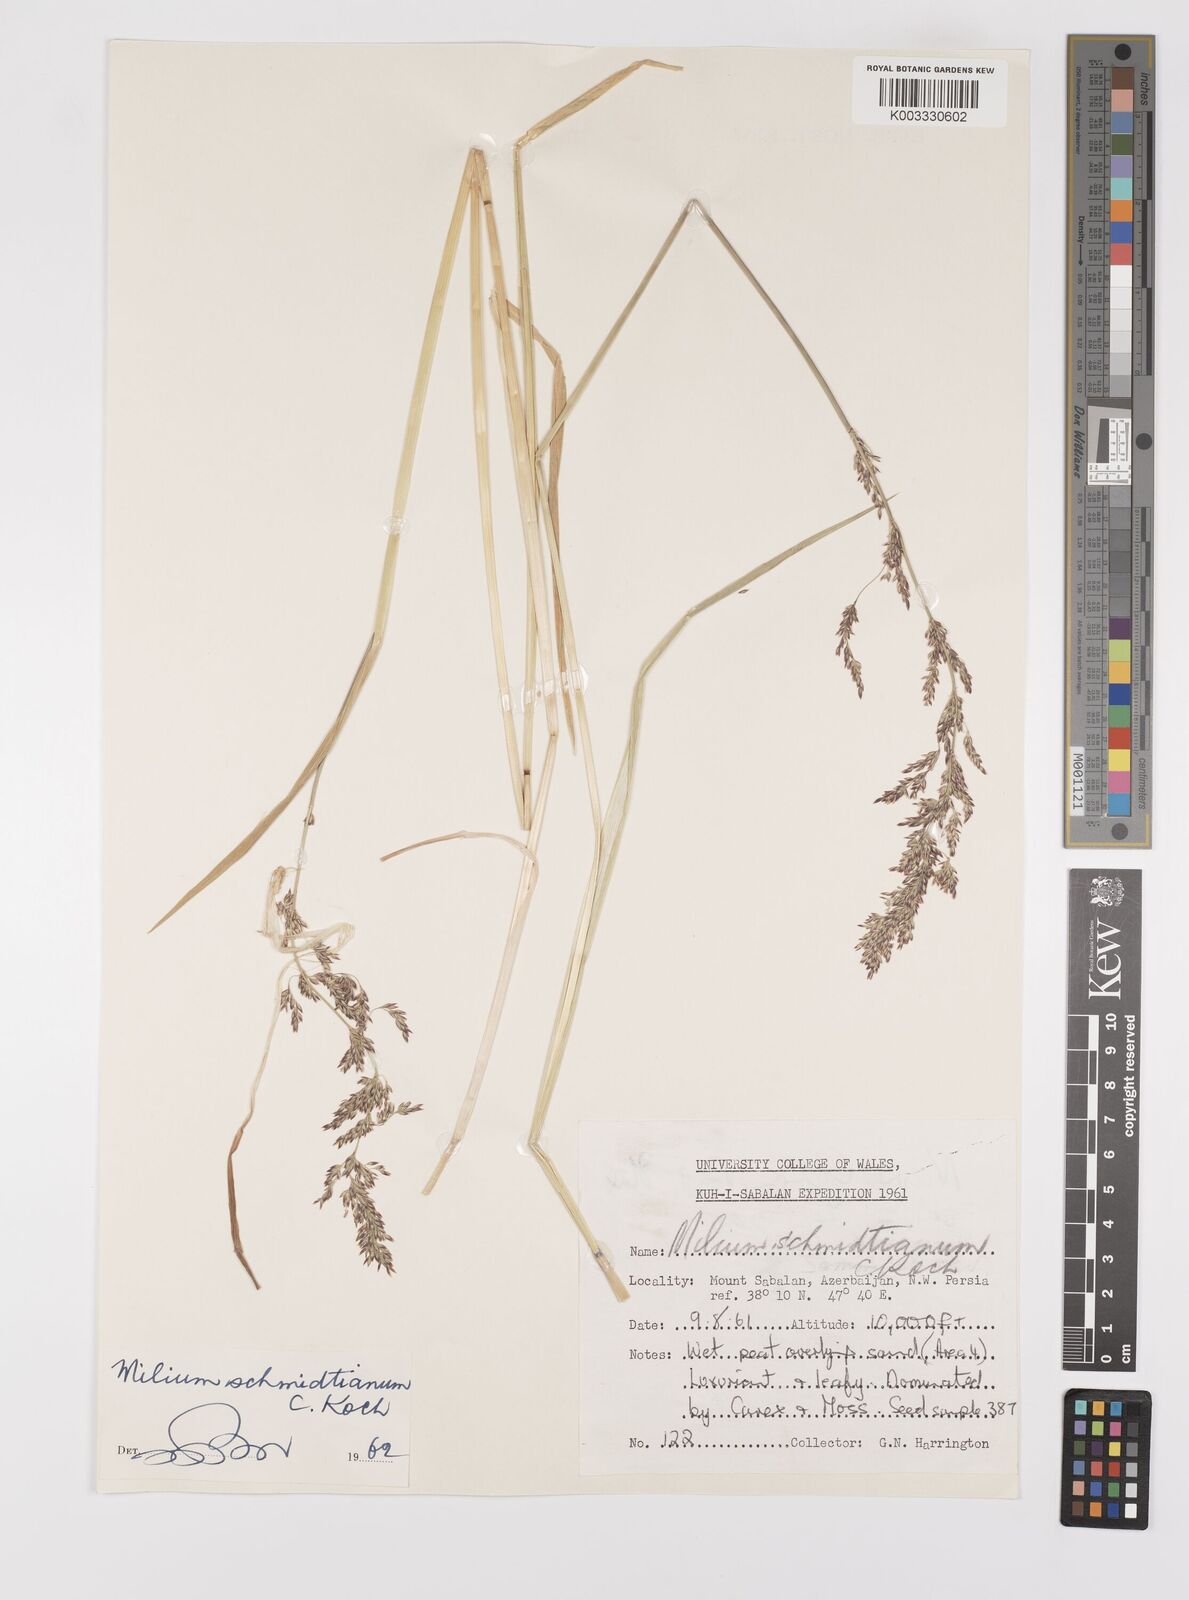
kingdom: Plantae
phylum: Tracheophyta
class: Liliopsida
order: Poales
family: Poaceae
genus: Milium
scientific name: Milium schmidtianum
